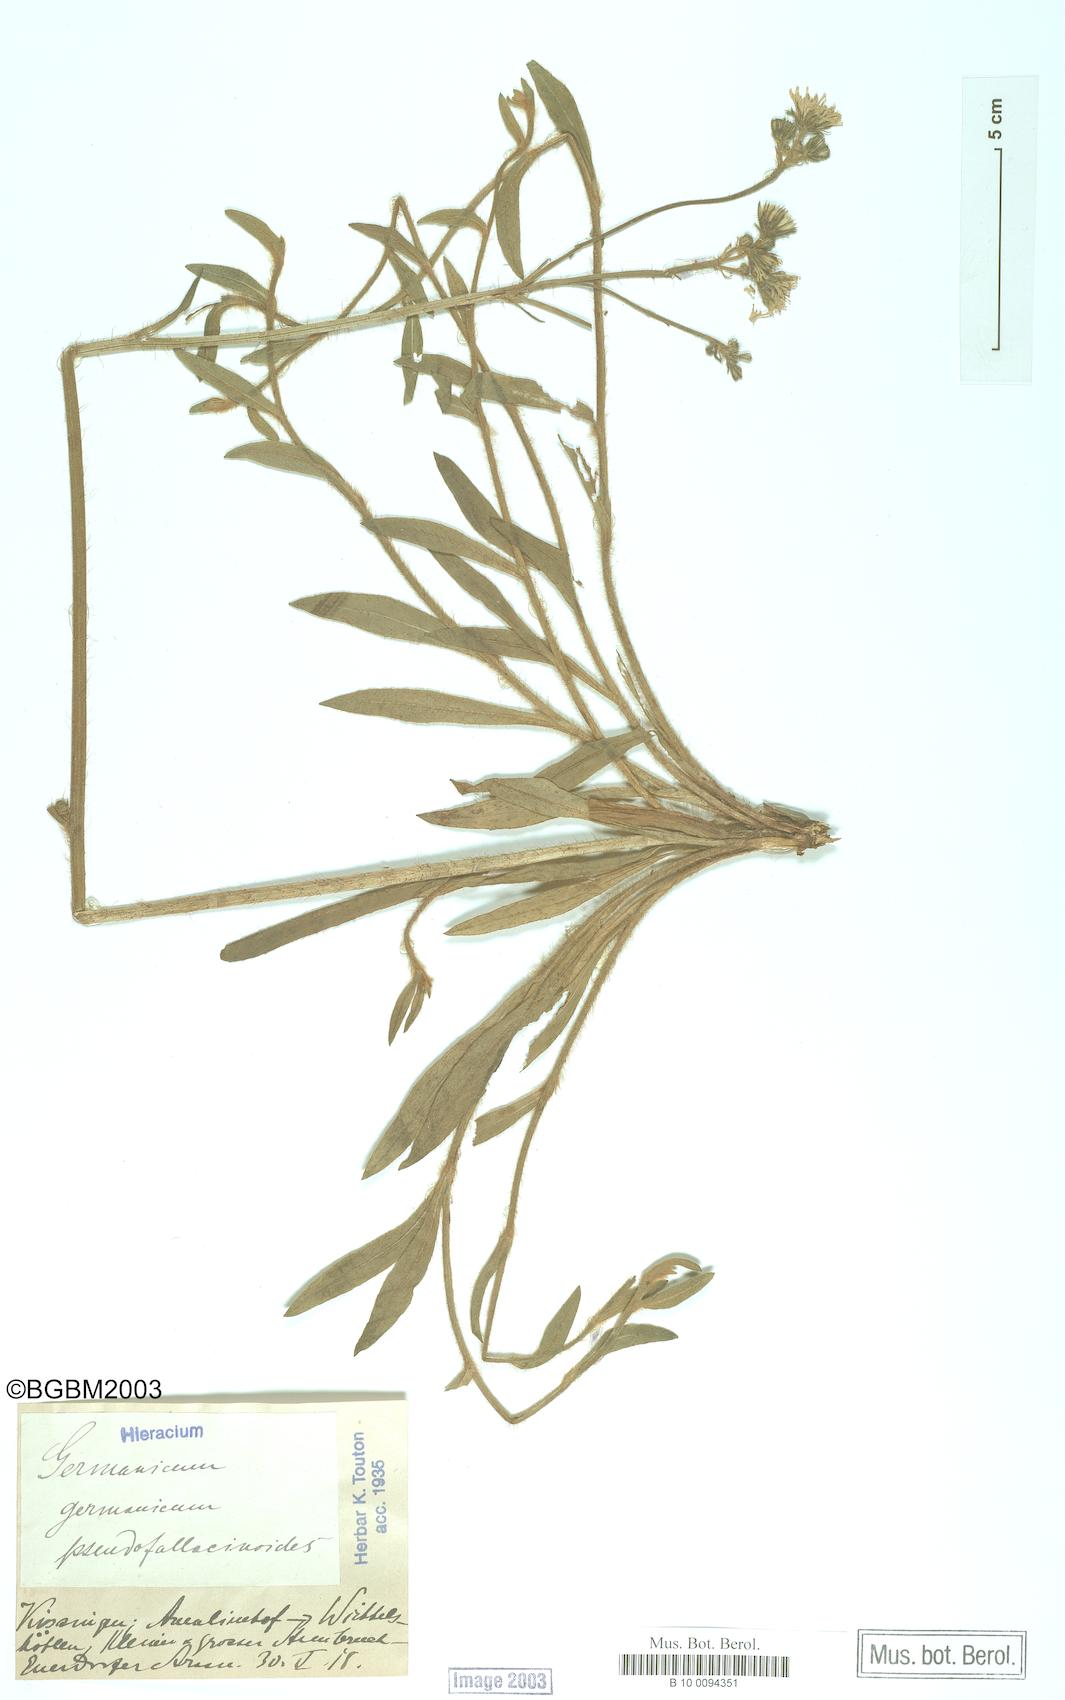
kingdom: Plantae
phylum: Tracheophyta
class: Magnoliopsida
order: Asterales
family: Asteraceae
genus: Pilosella
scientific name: Pilosella fallacina
